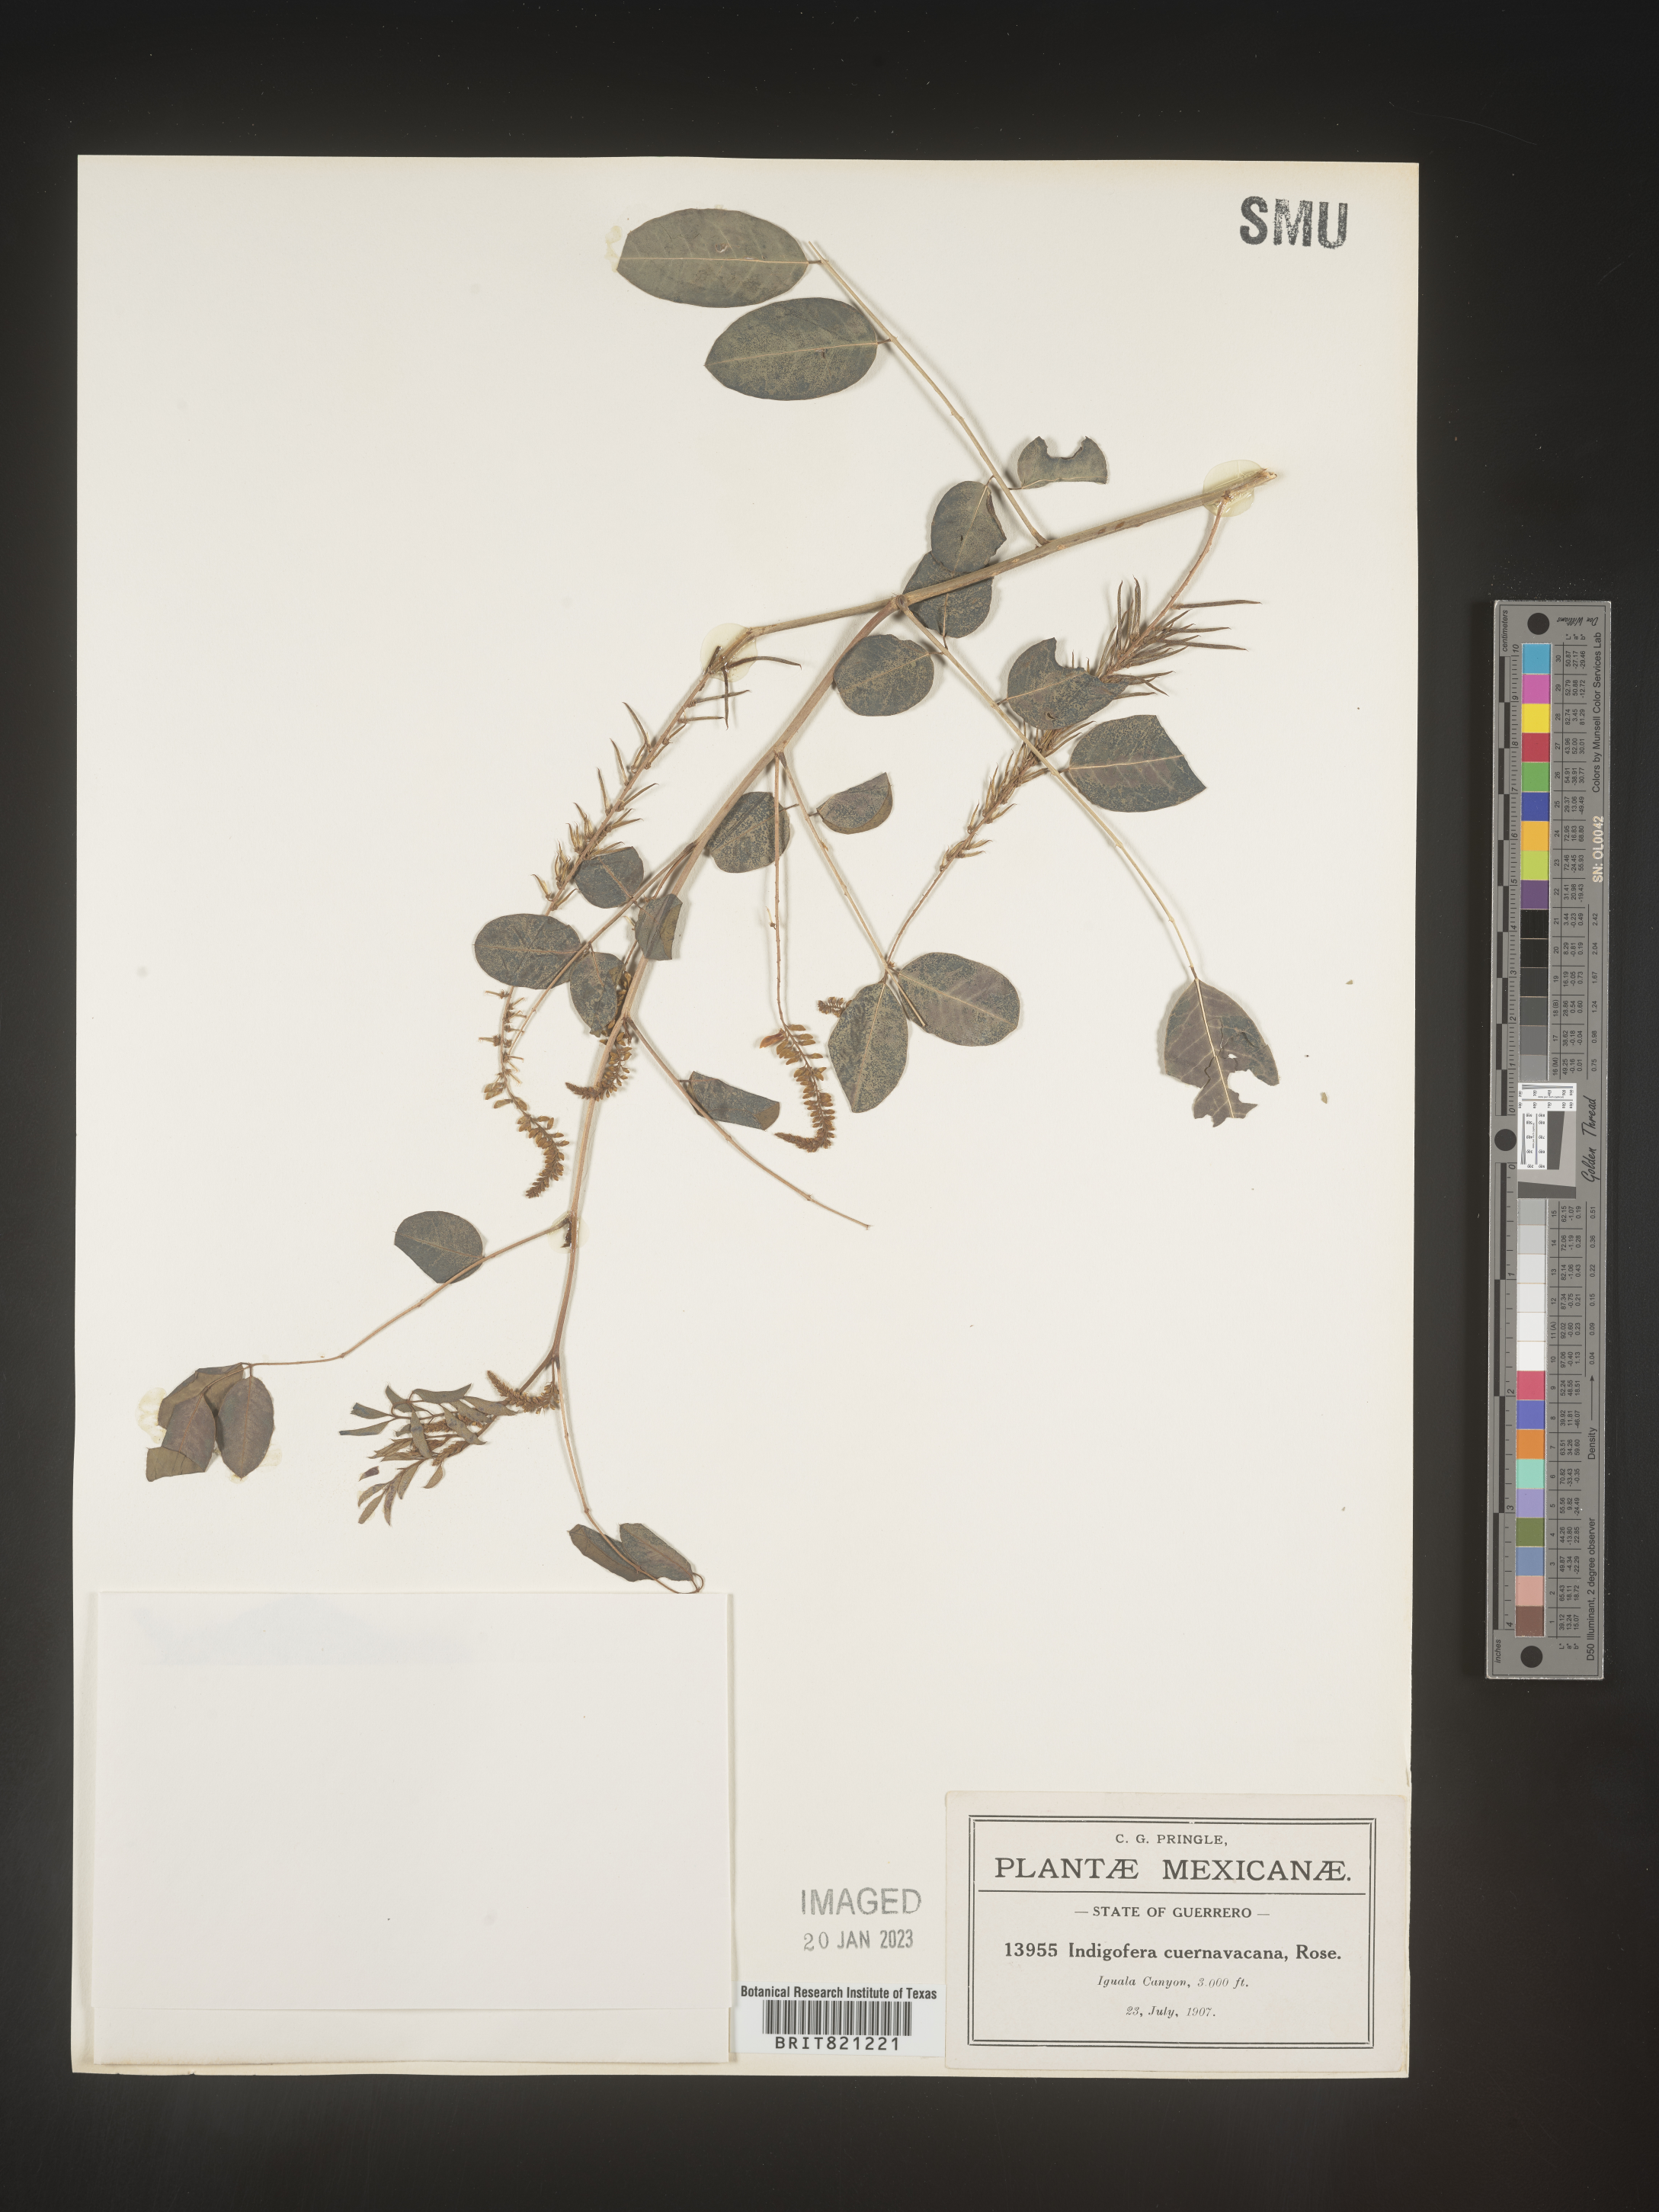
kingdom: Plantae
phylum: Tracheophyta
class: Magnoliopsida
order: Fabales
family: Fabaceae
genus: Indigofera
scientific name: Indigofera
